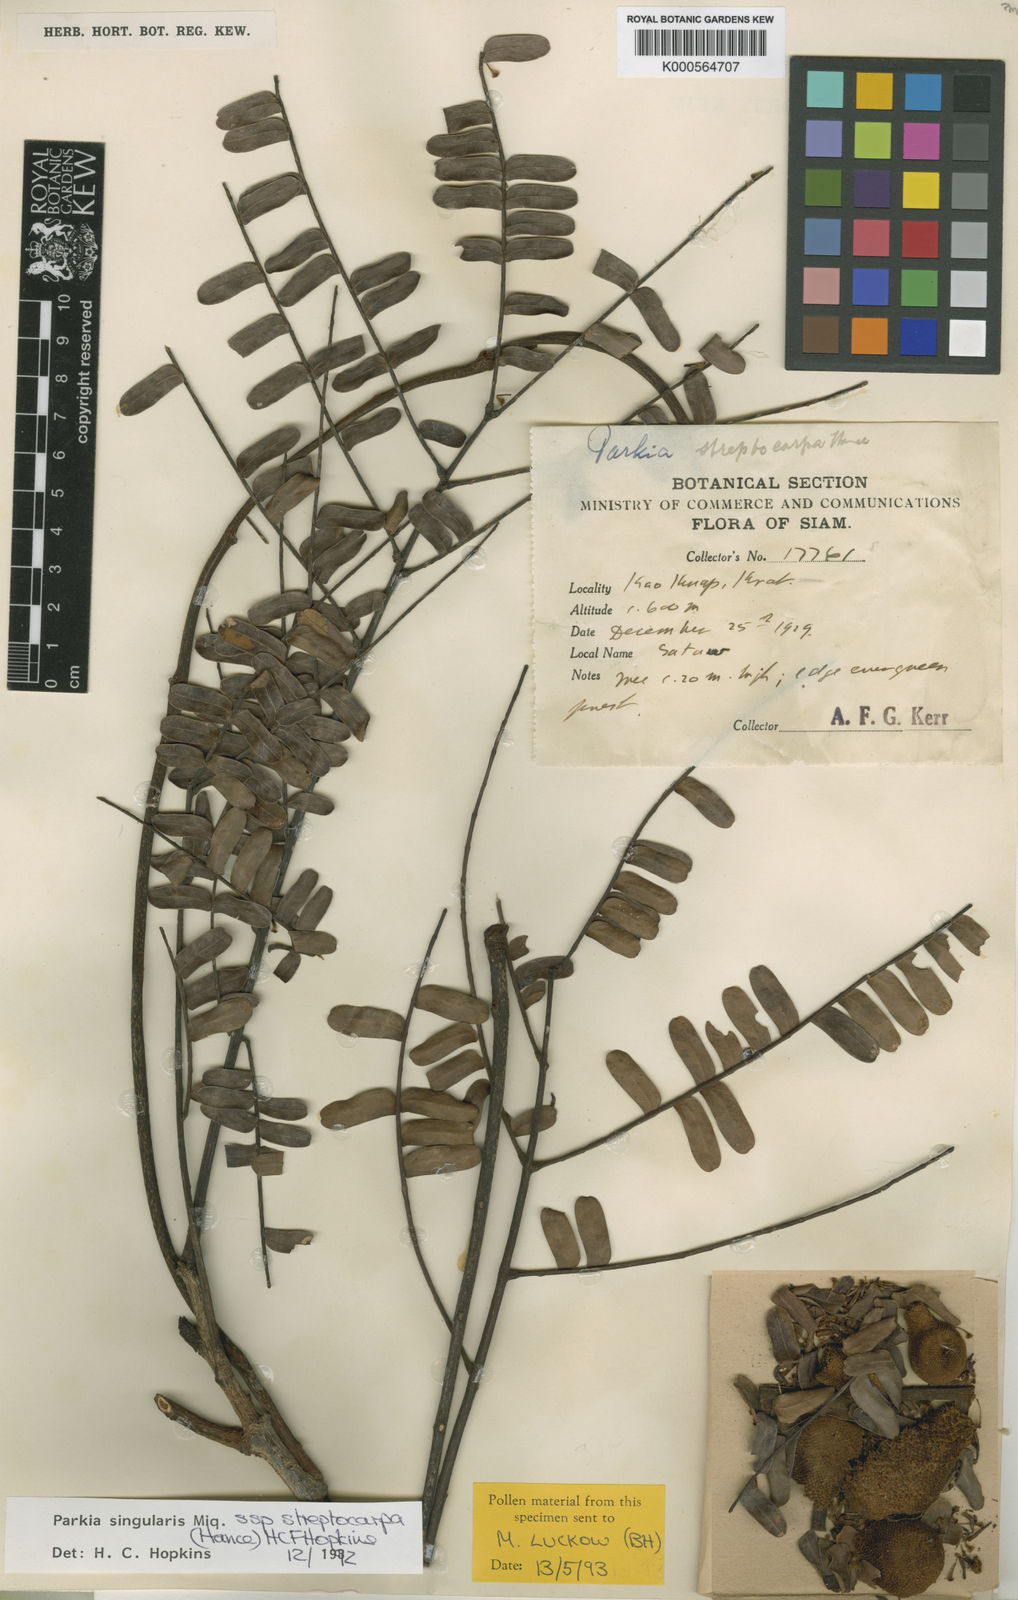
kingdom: Plantae
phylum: Tracheophyta
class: Magnoliopsida
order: Fabales
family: Fabaceae
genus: Parkia
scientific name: Parkia sumatrana
